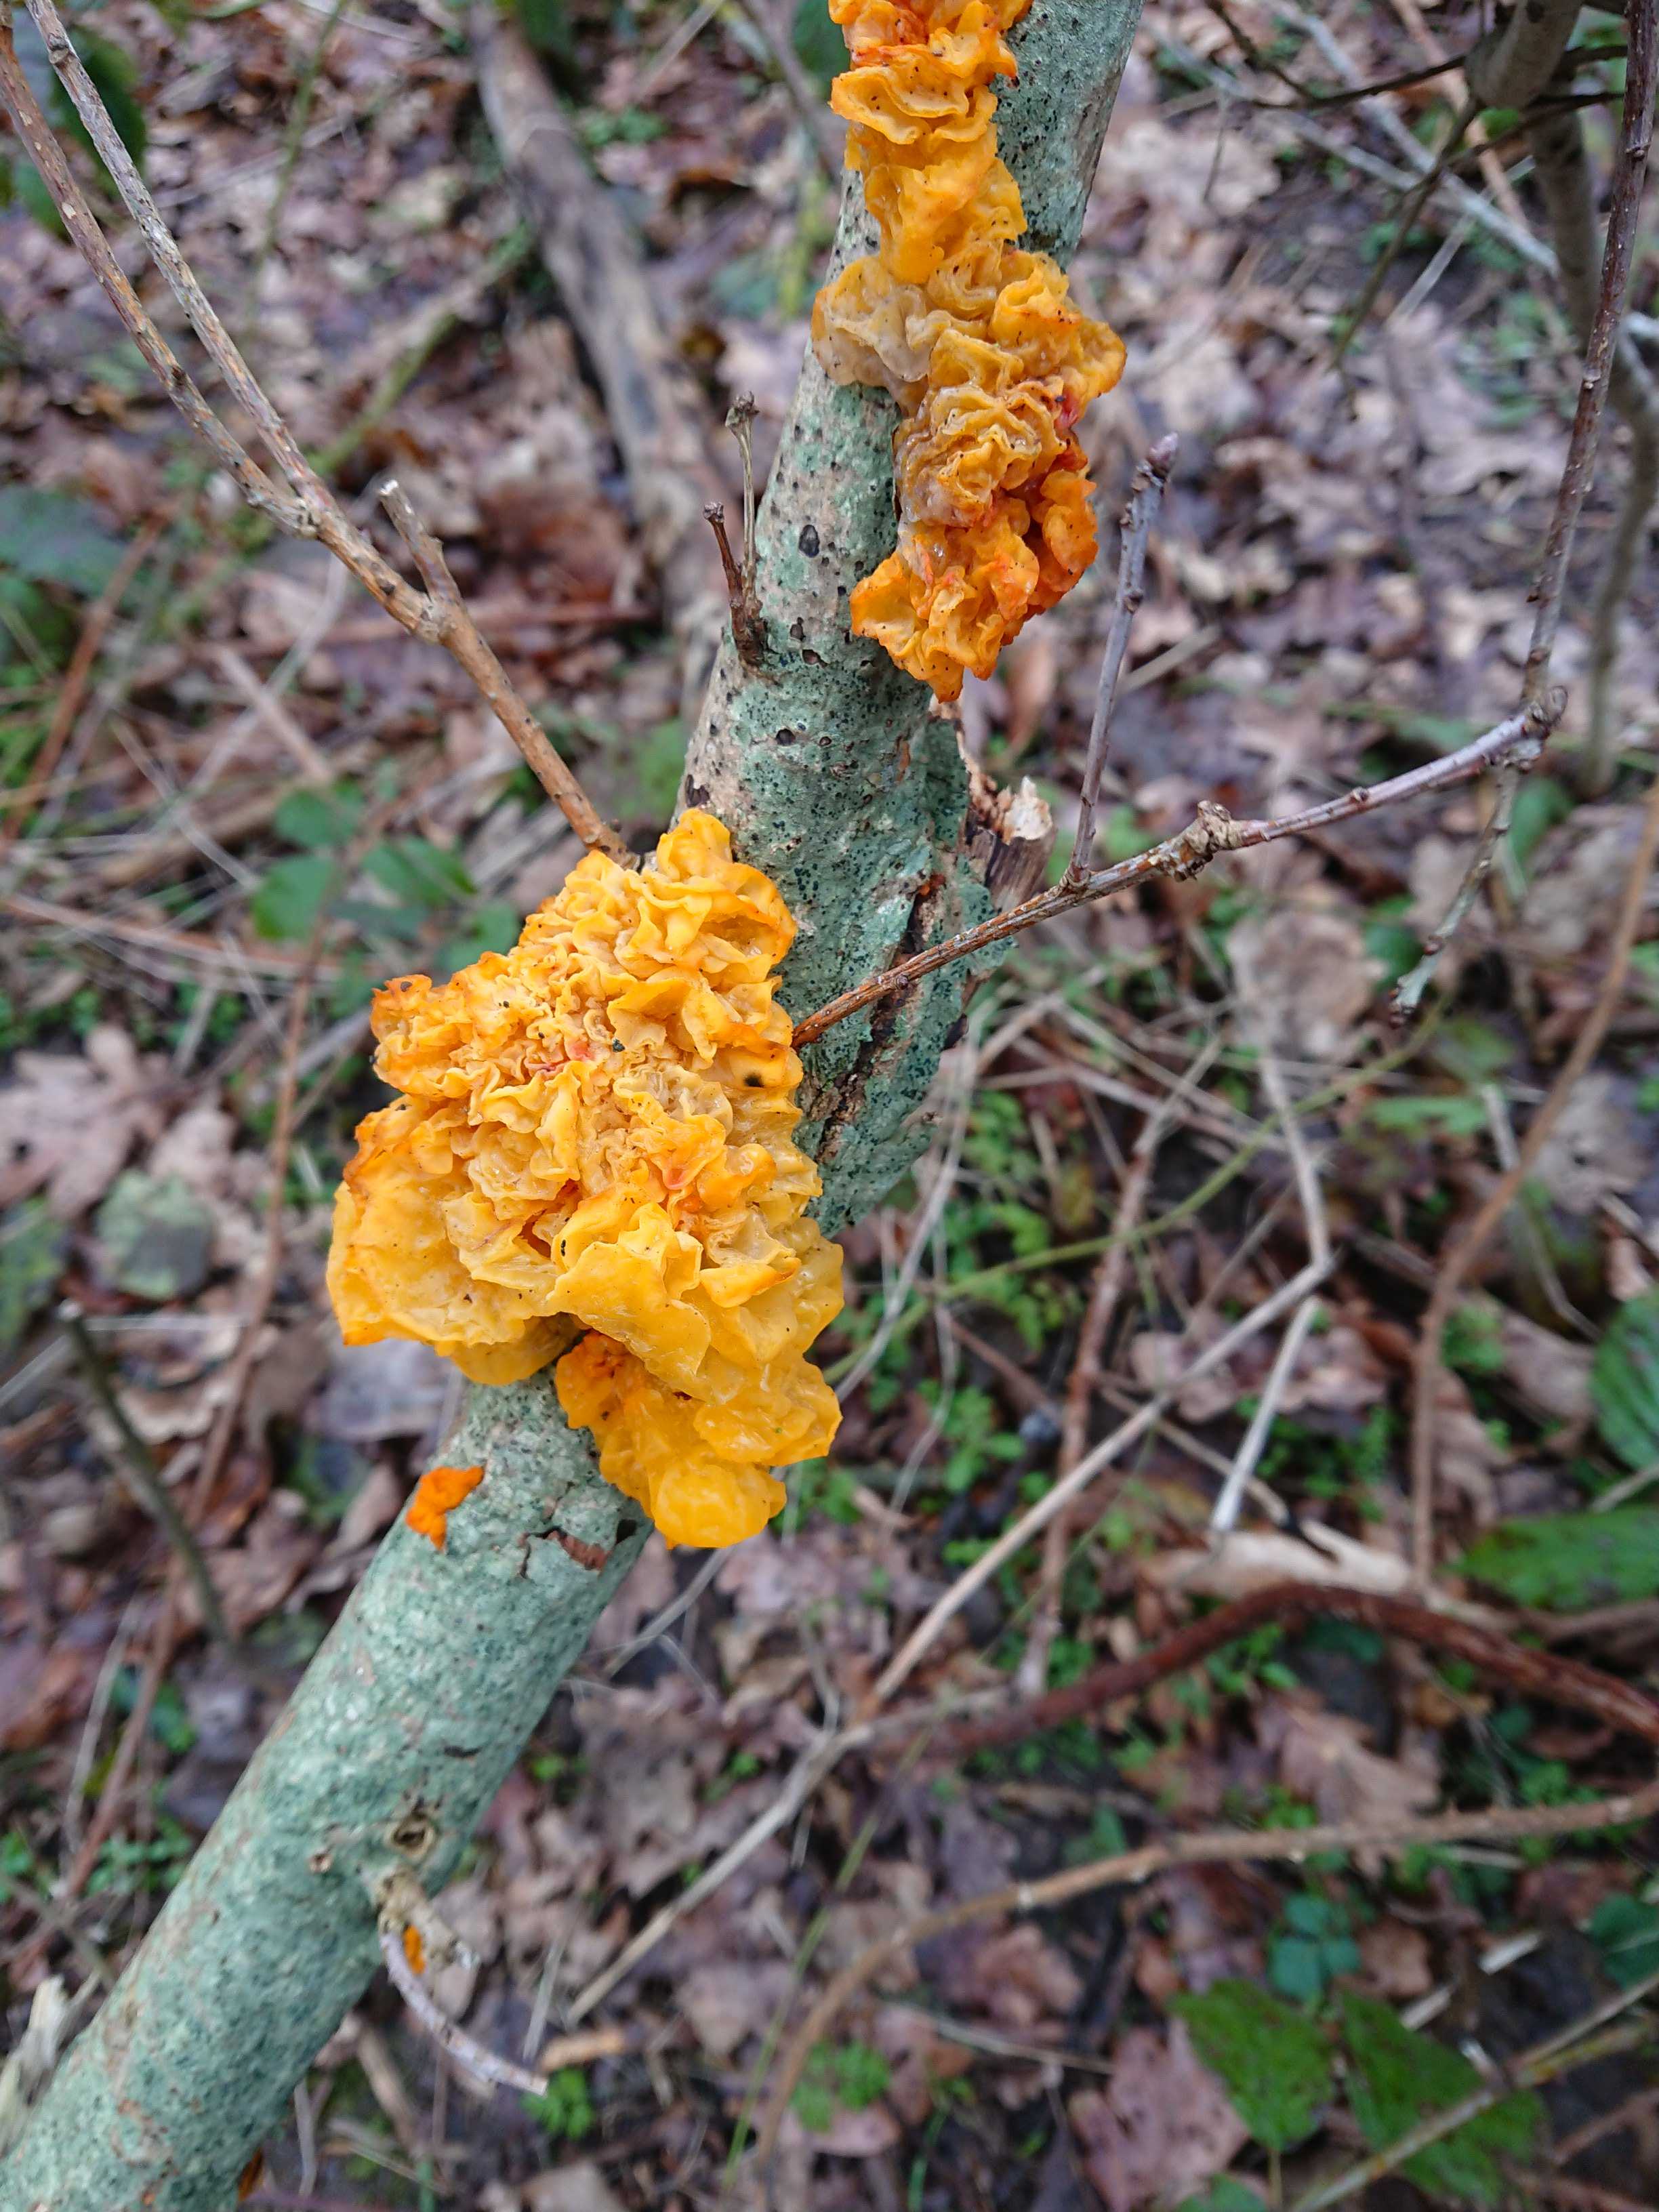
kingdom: Fungi
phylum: Basidiomycota
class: Tremellomycetes
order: Tremellales
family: Tremellaceae
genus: Tremella
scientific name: Tremella mesenterica
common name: gul bævresvamp
